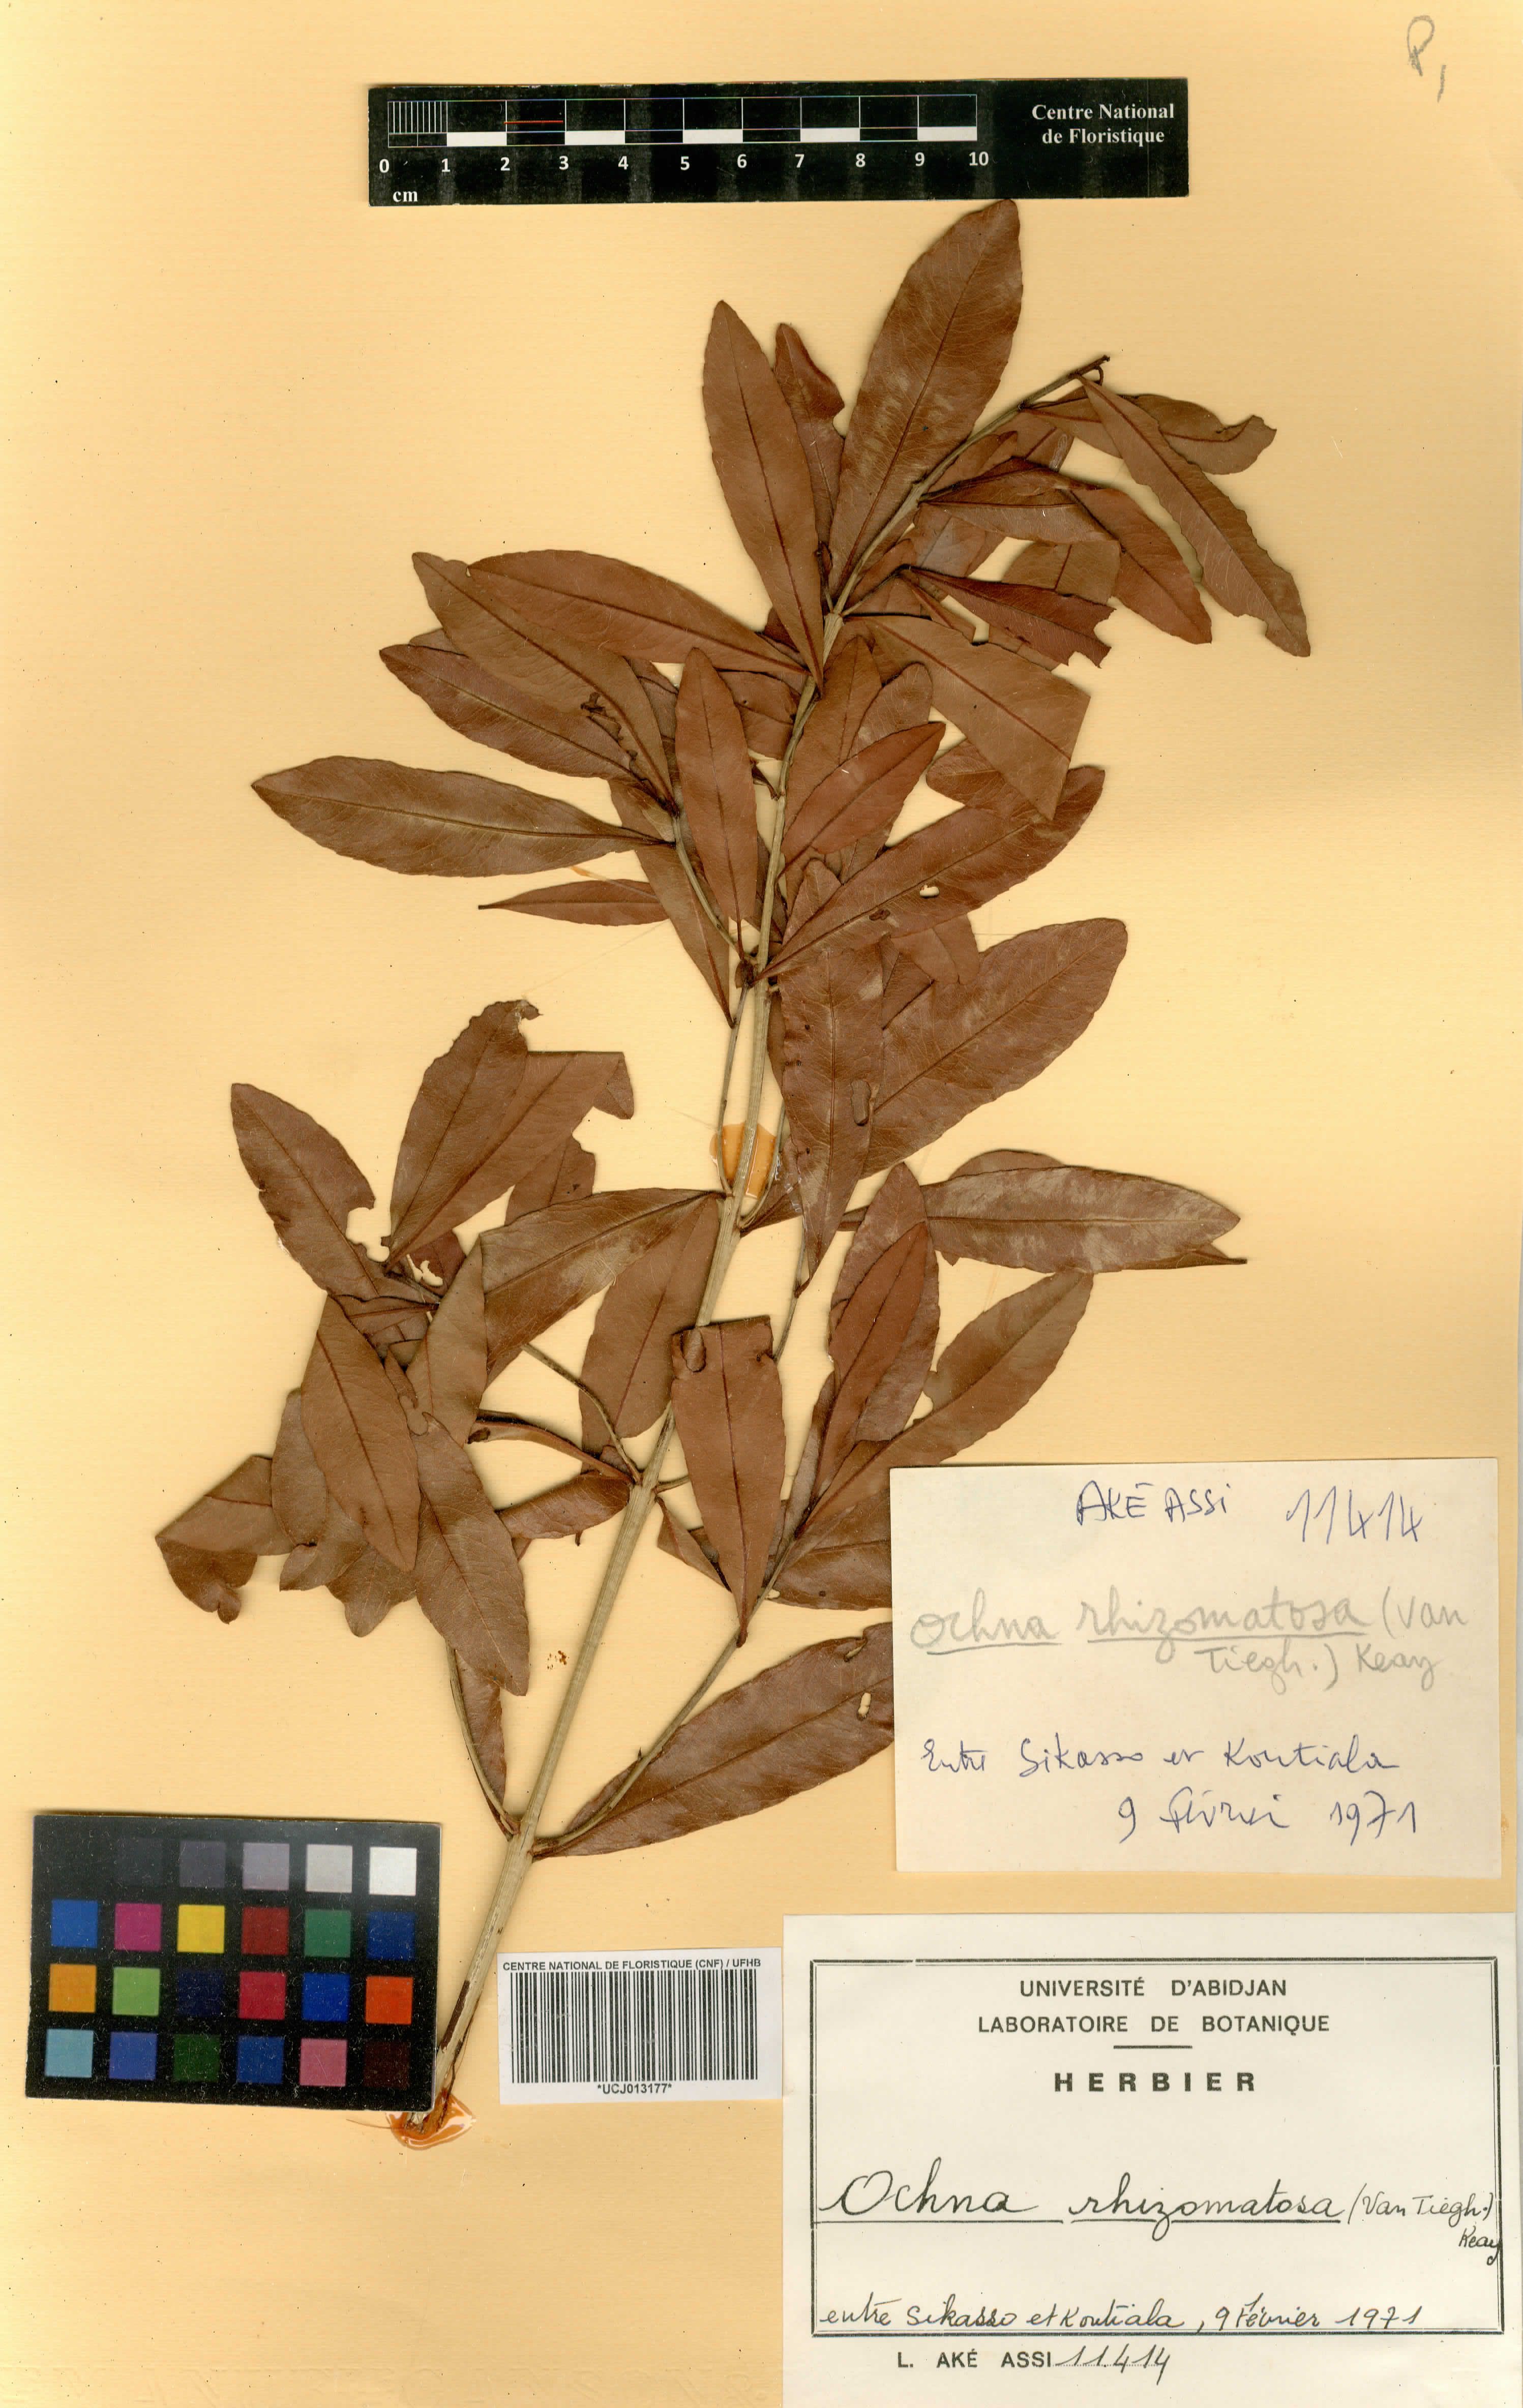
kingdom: Plantae
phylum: Tracheophyta
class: Magnoliopsida
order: Malpighiales
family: Ochnaceae
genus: Ochna
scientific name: Ochna rhizomatosa
